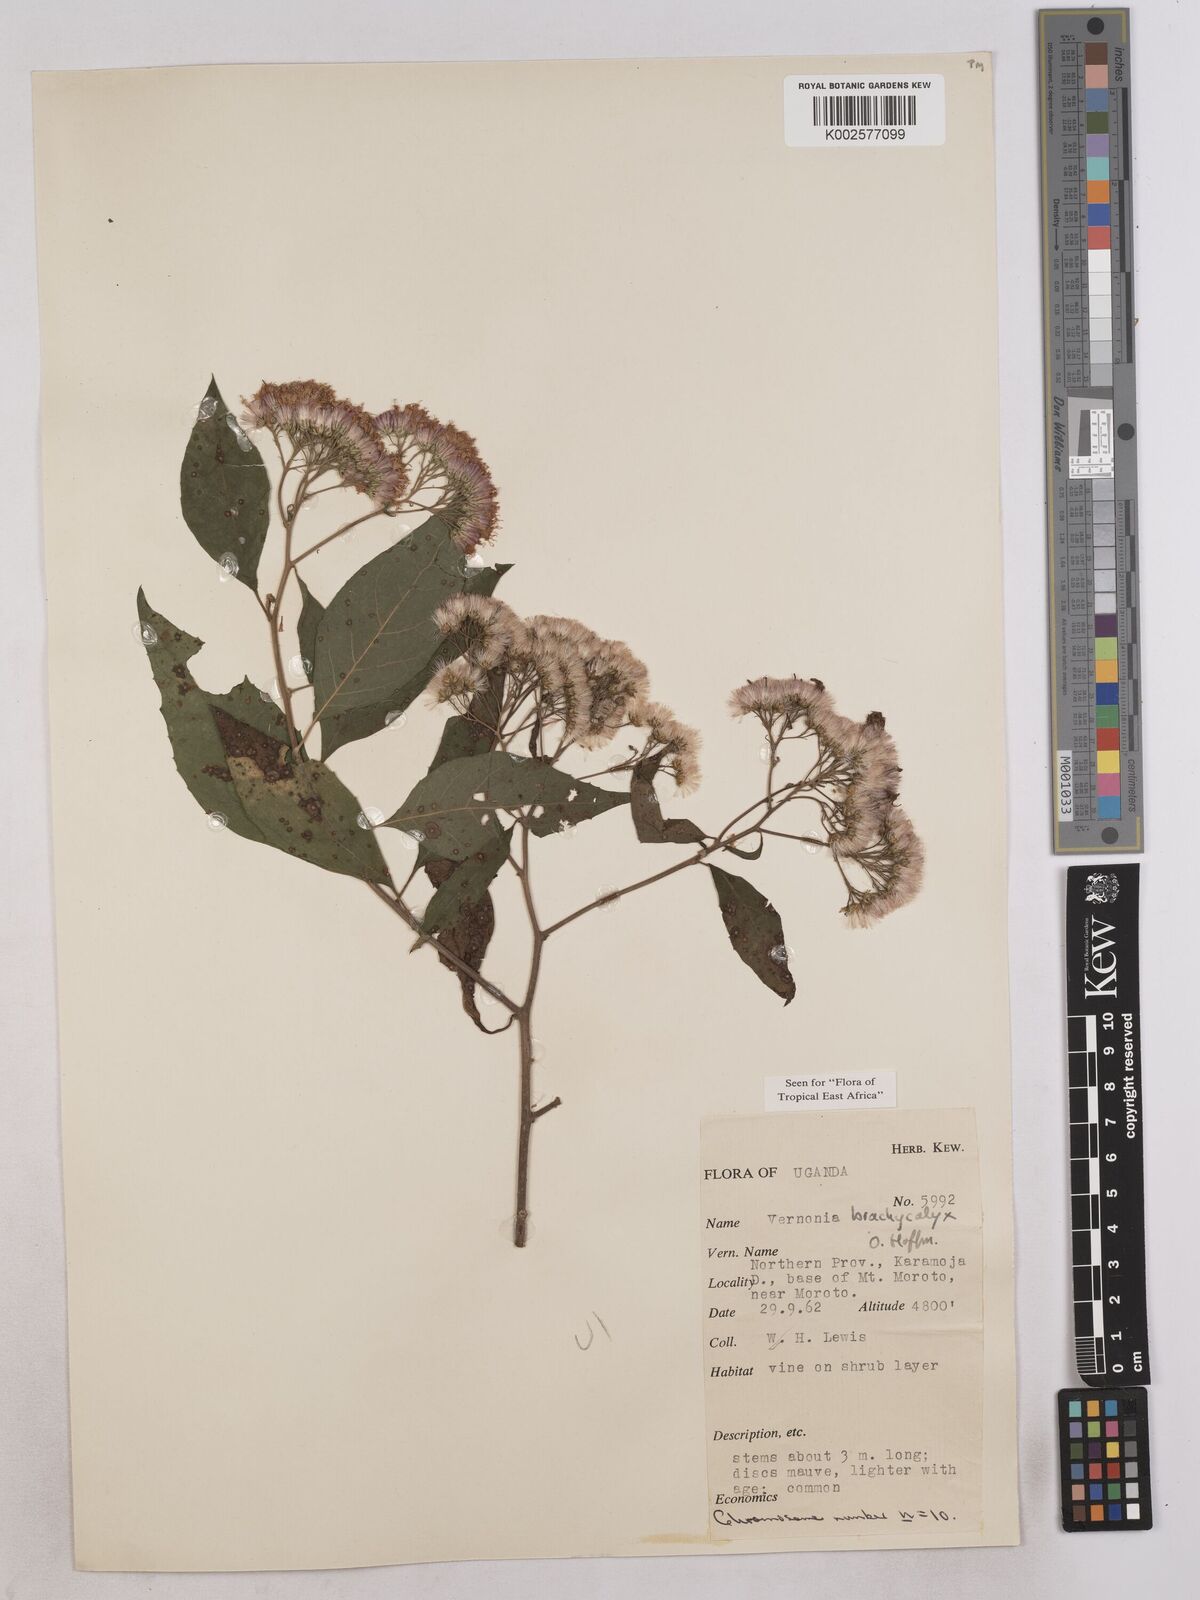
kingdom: Plantae
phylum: Tracheophyta
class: Magnoliopsida
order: Asterales
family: Asteraceae
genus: Hoffmannanthus
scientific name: Hoffmannanthus abbotianus
